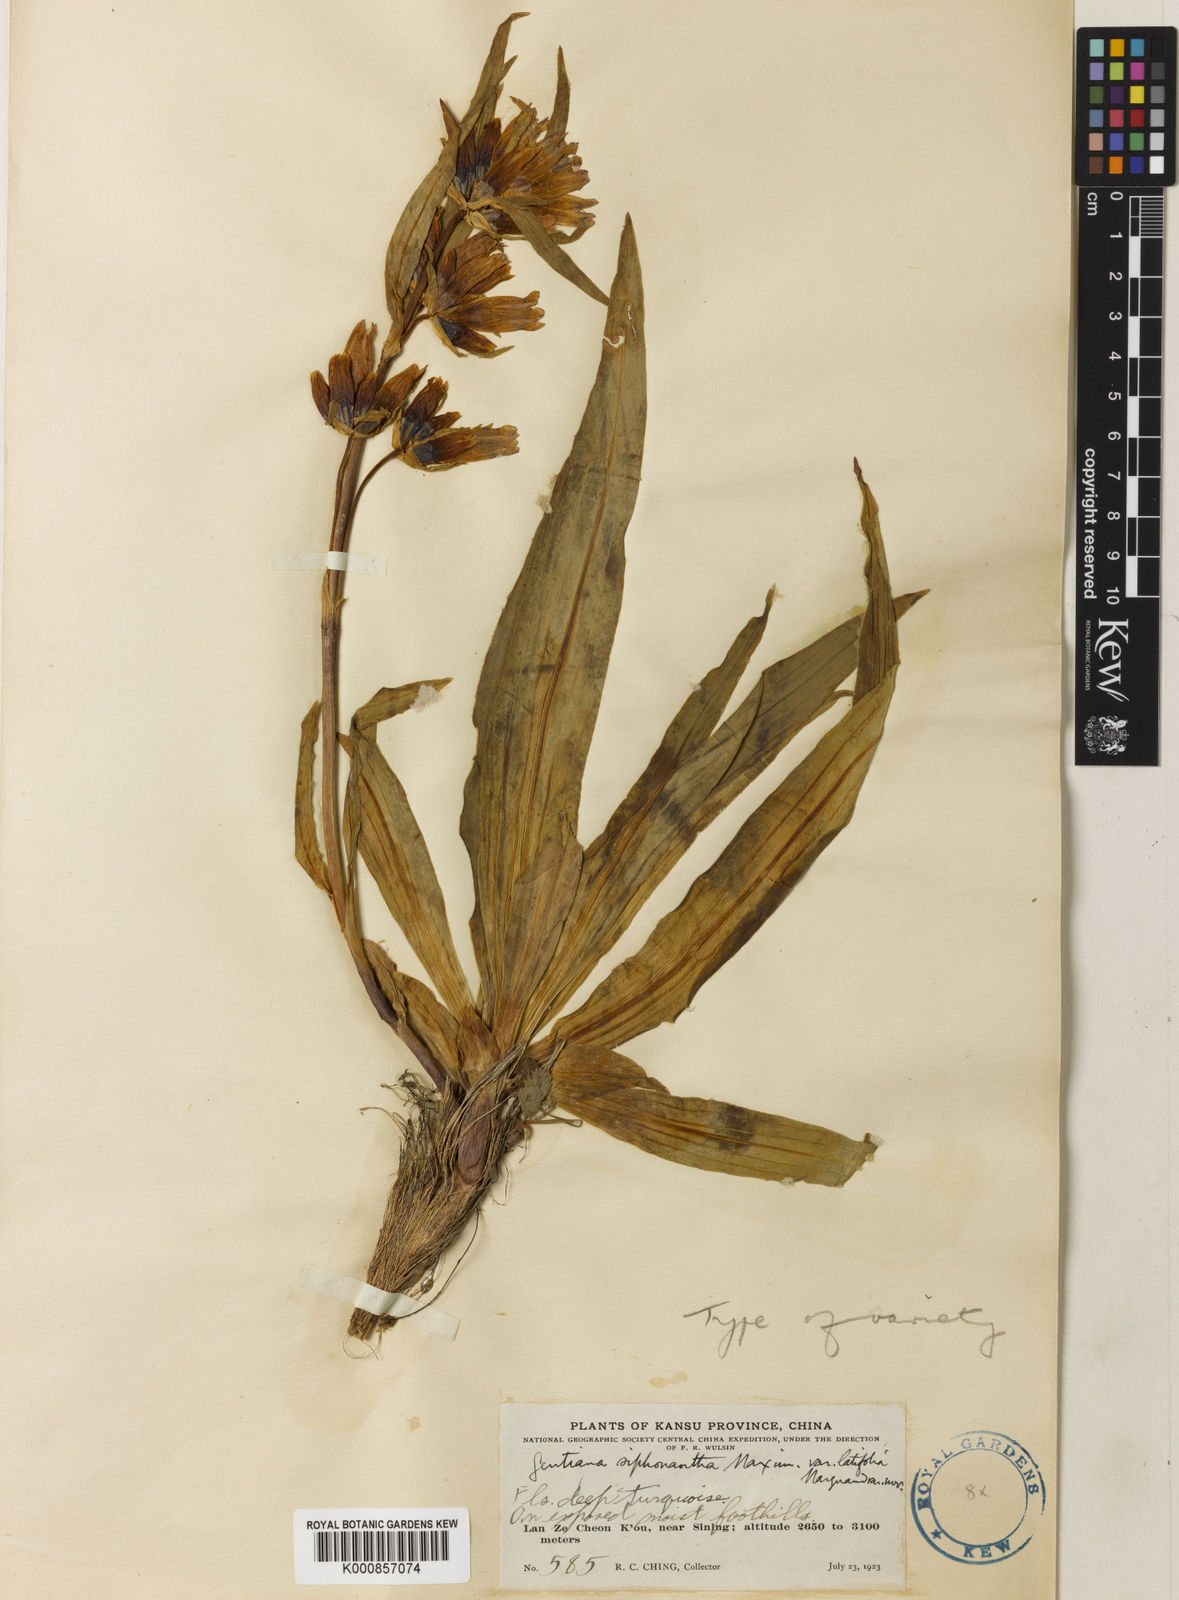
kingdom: Plantae
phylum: Tracheophyta
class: Magnoliopsida
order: Gentianales
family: Gentianaceae
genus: Gentiana
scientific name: Gentiana
